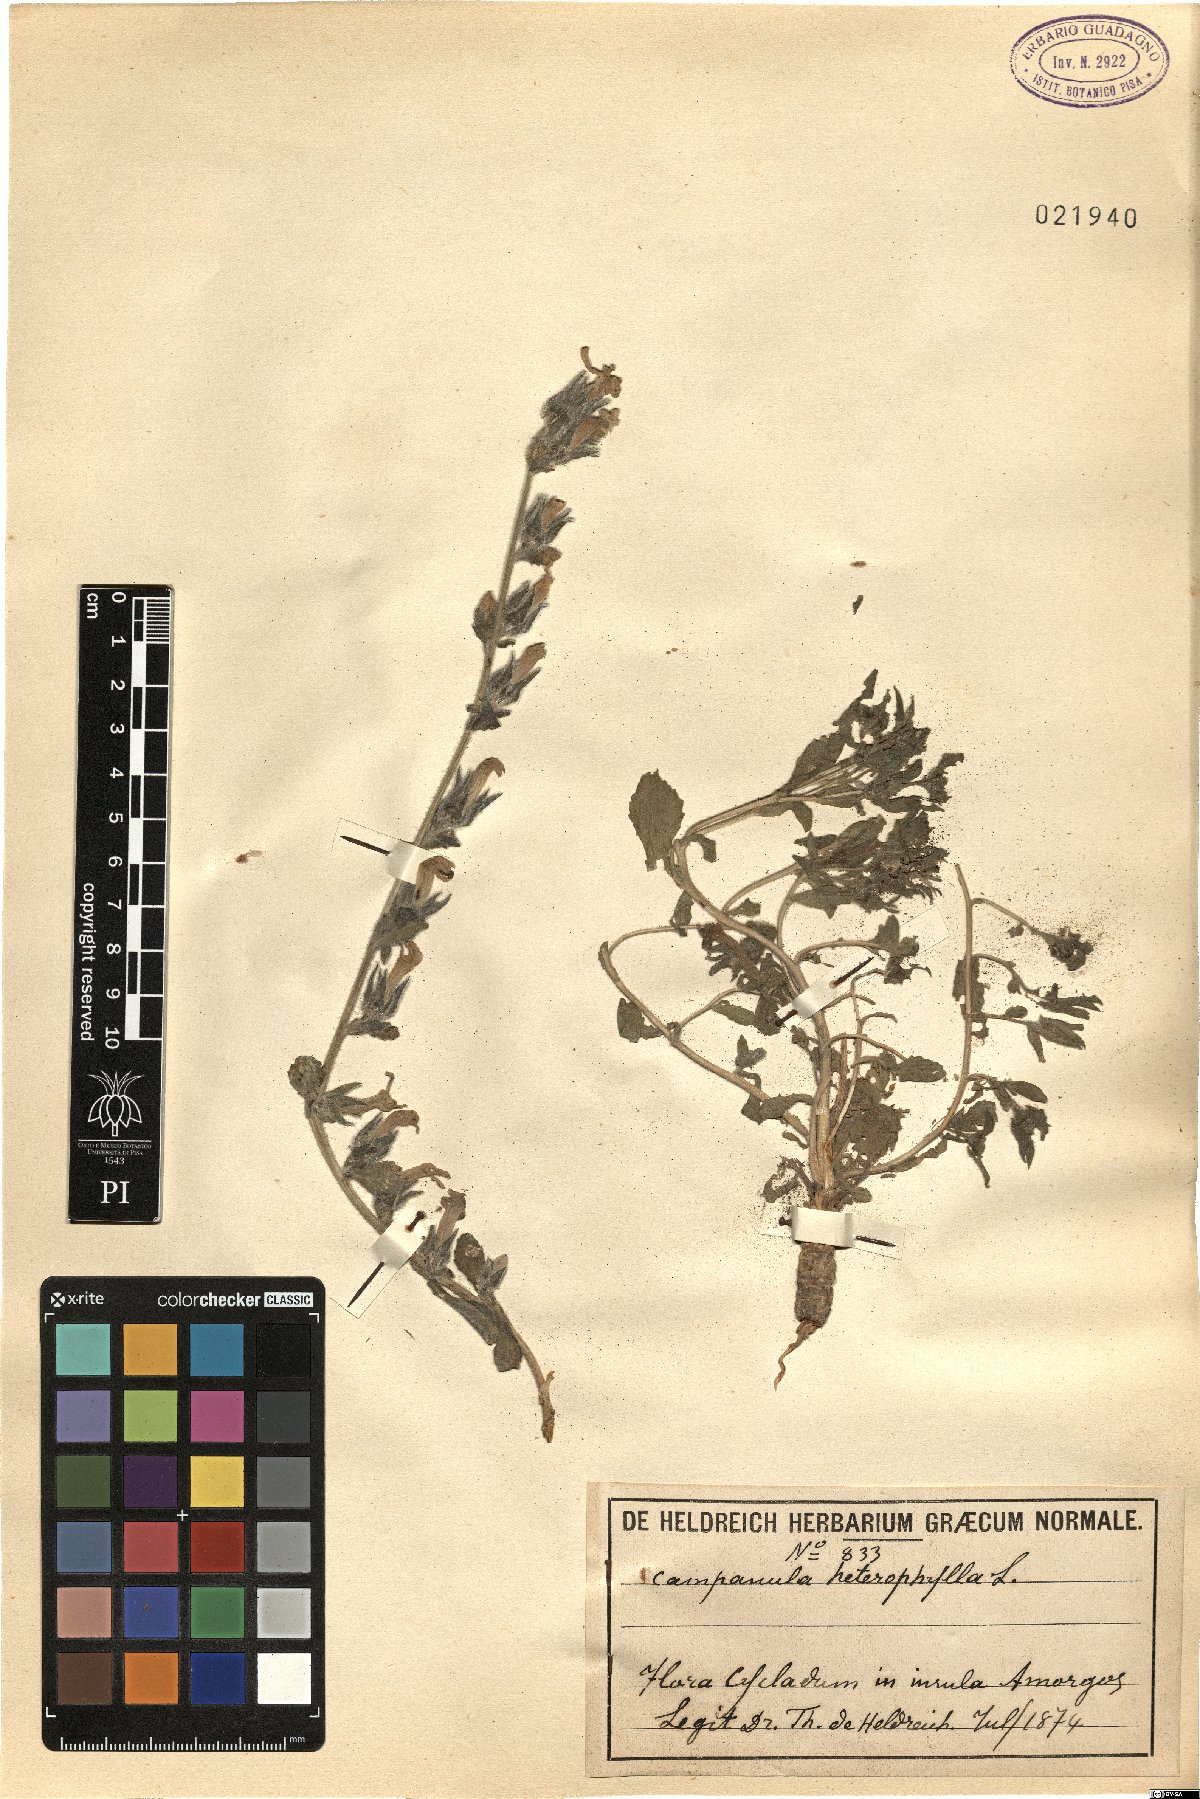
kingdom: Plantae
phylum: Tracheophyta
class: Magnoliopsida
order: Asterales
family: Campanulaceae
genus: Campanula
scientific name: Campanula heterophylla
